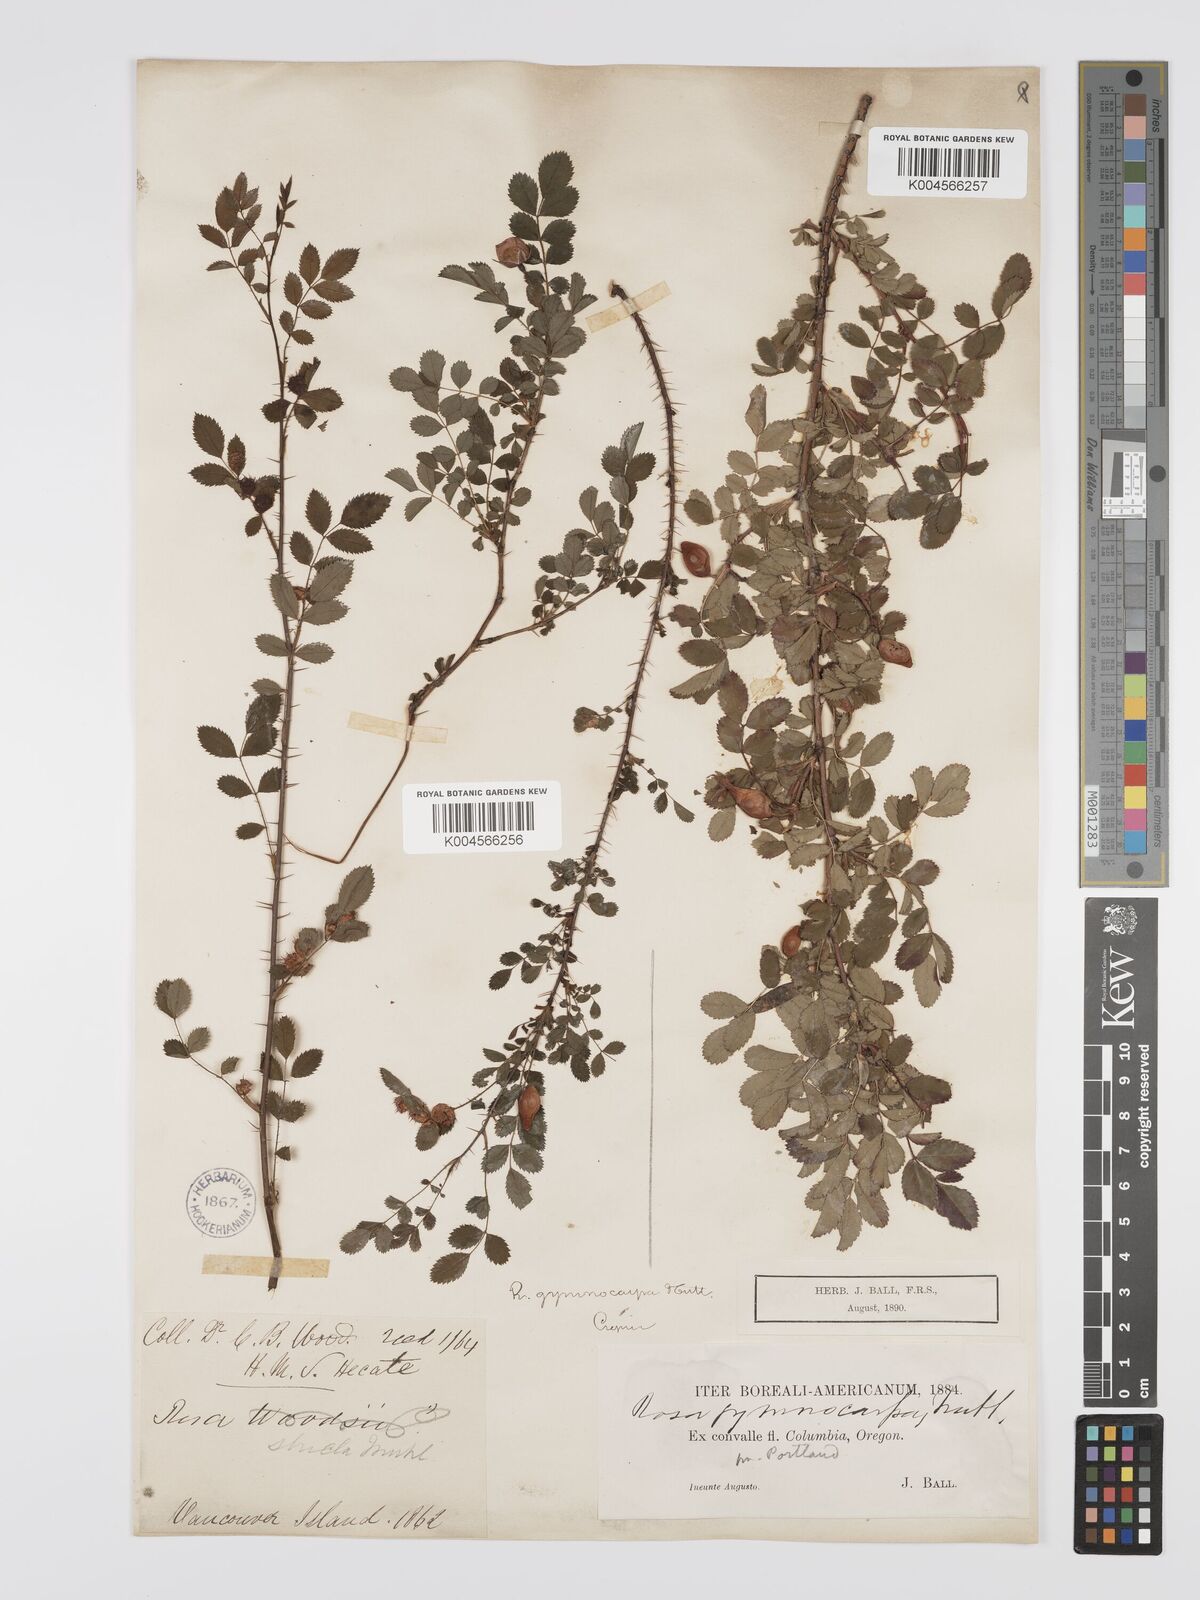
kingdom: Plantae
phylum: Tracheophyta
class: Magnoliopsida
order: Rosales
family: Rosaceae
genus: Rosa
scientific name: Rosa gymnocarpa
